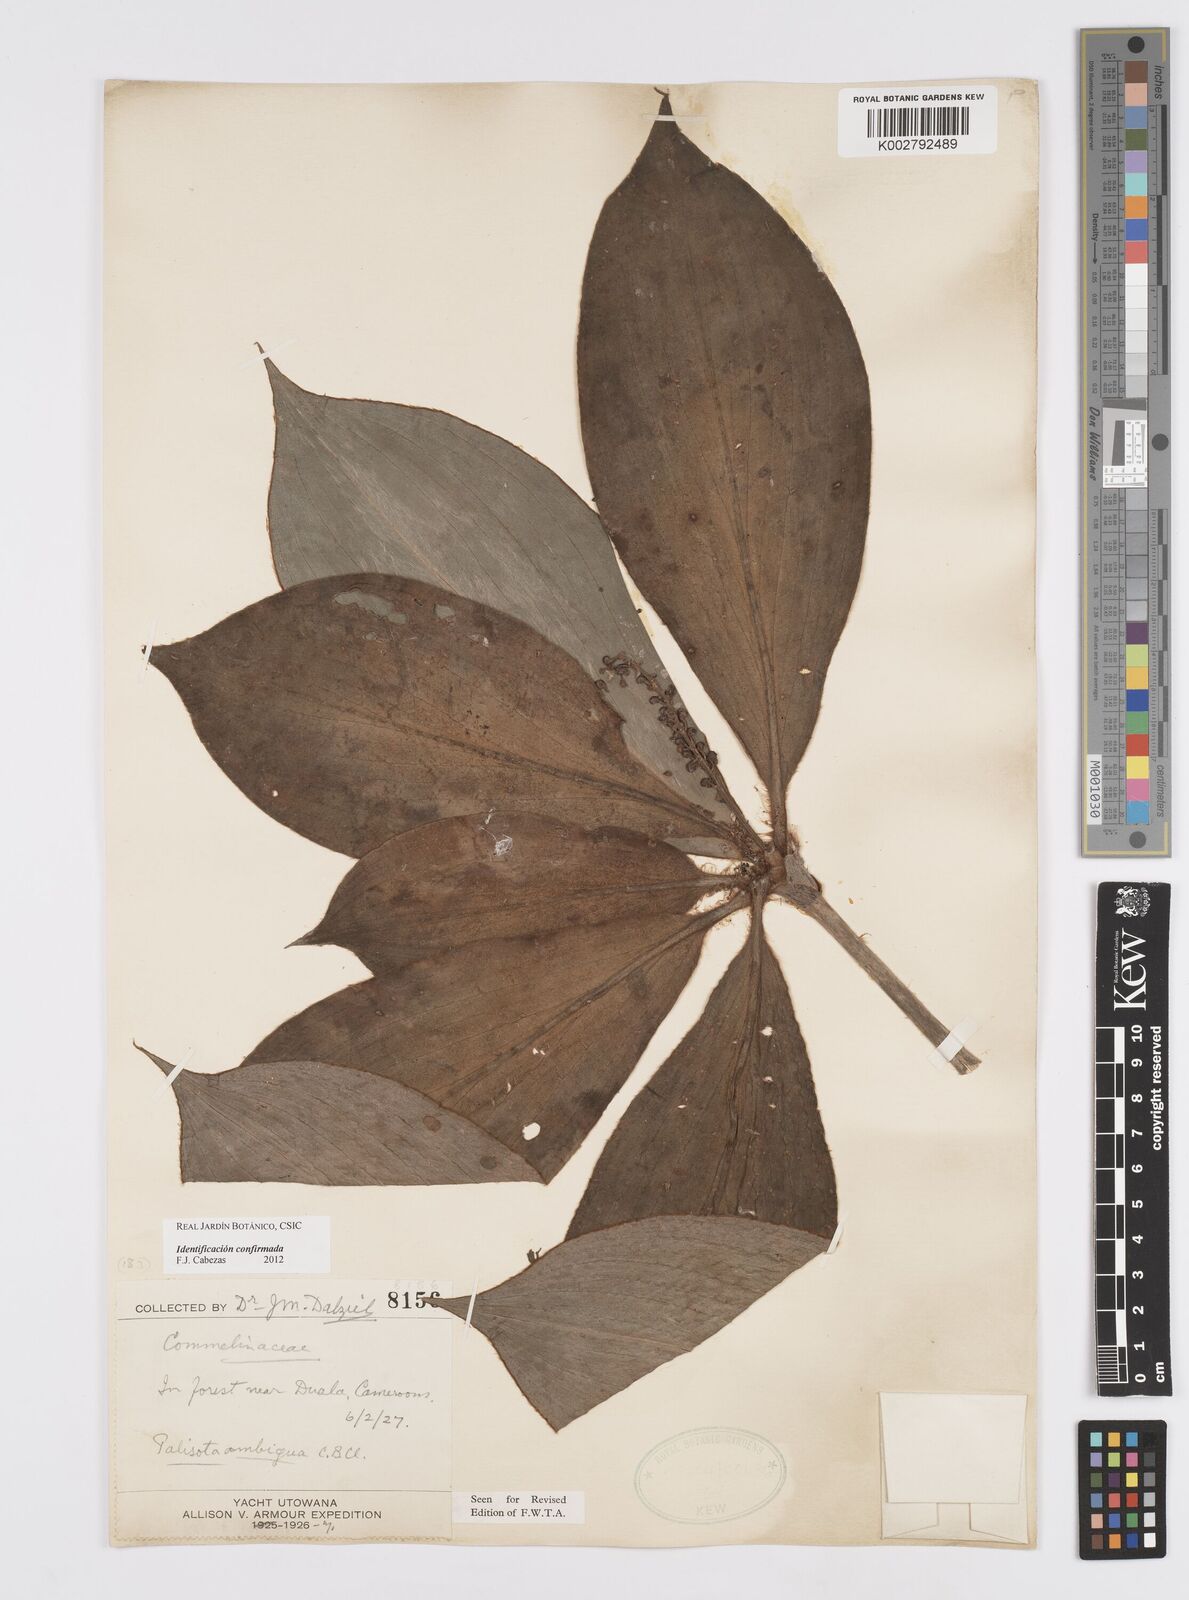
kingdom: Plantae
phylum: Tracheophyta
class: Liliopsida
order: Commelinales
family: Commelinaceae
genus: Palisota
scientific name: Palisota ambigua
